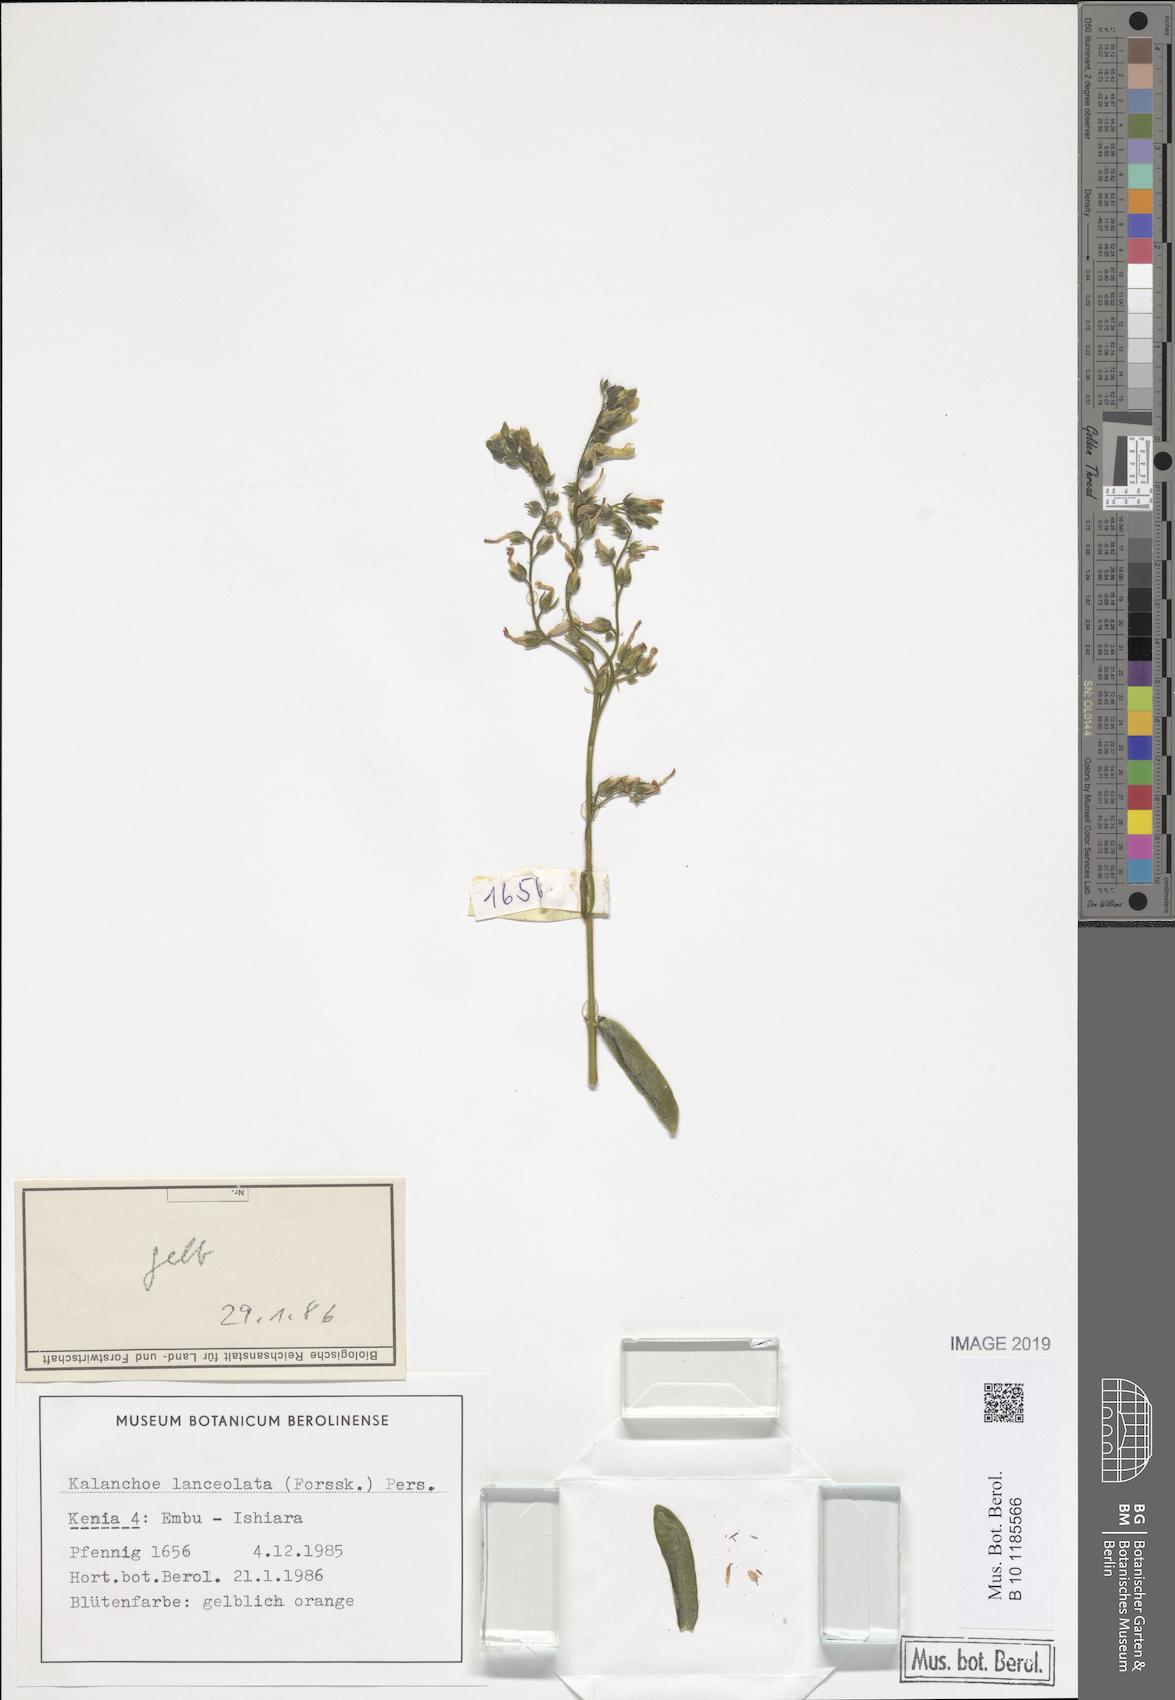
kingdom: Plantae
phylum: Tracheophyta
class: Magnoliopsida
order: Saxifragales
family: Crassulaceae
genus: Kalanchoe
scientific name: Kalanchoe lanceolata
